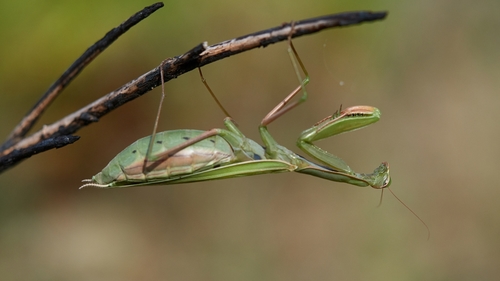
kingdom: Animalia
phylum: Arthropoda
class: Insecta
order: Mantodea
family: Mantidae
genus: Mantis
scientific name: Mantis religiosa
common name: Praying mantis
